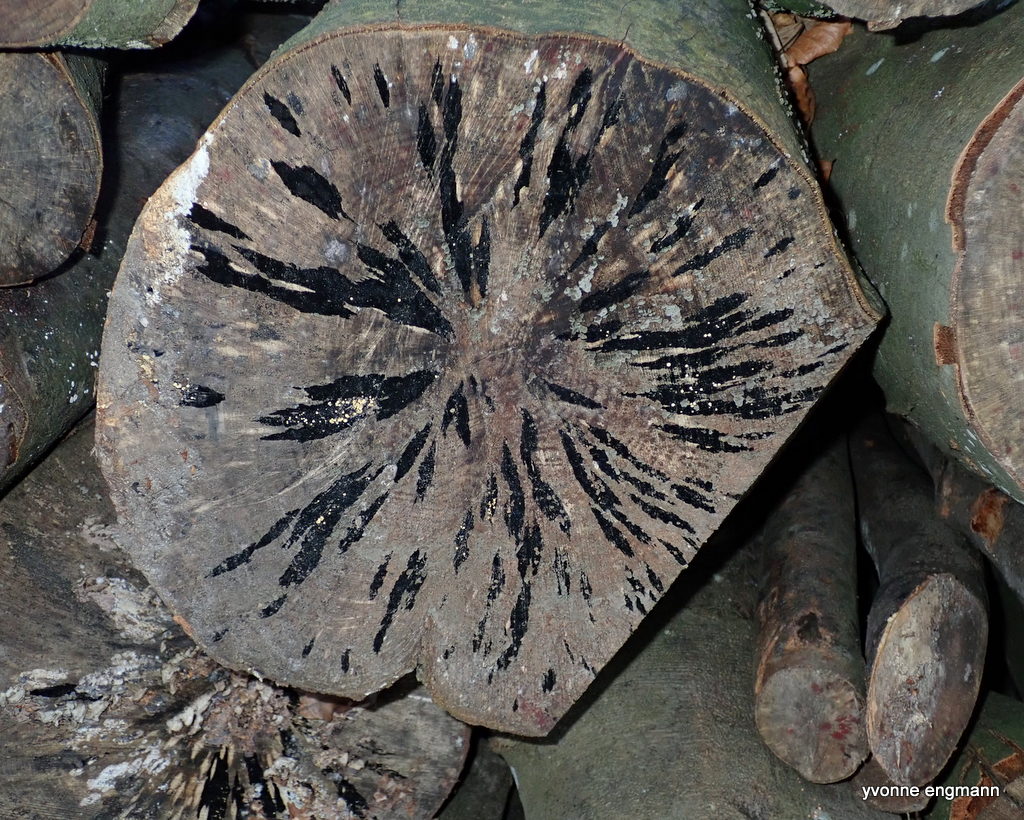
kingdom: Fungi
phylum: Ascomycota
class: Leotiomycetes
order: Helotiales
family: Helotiaceae
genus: Bispora
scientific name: Bispora pallescens
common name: måtte-snitskive
